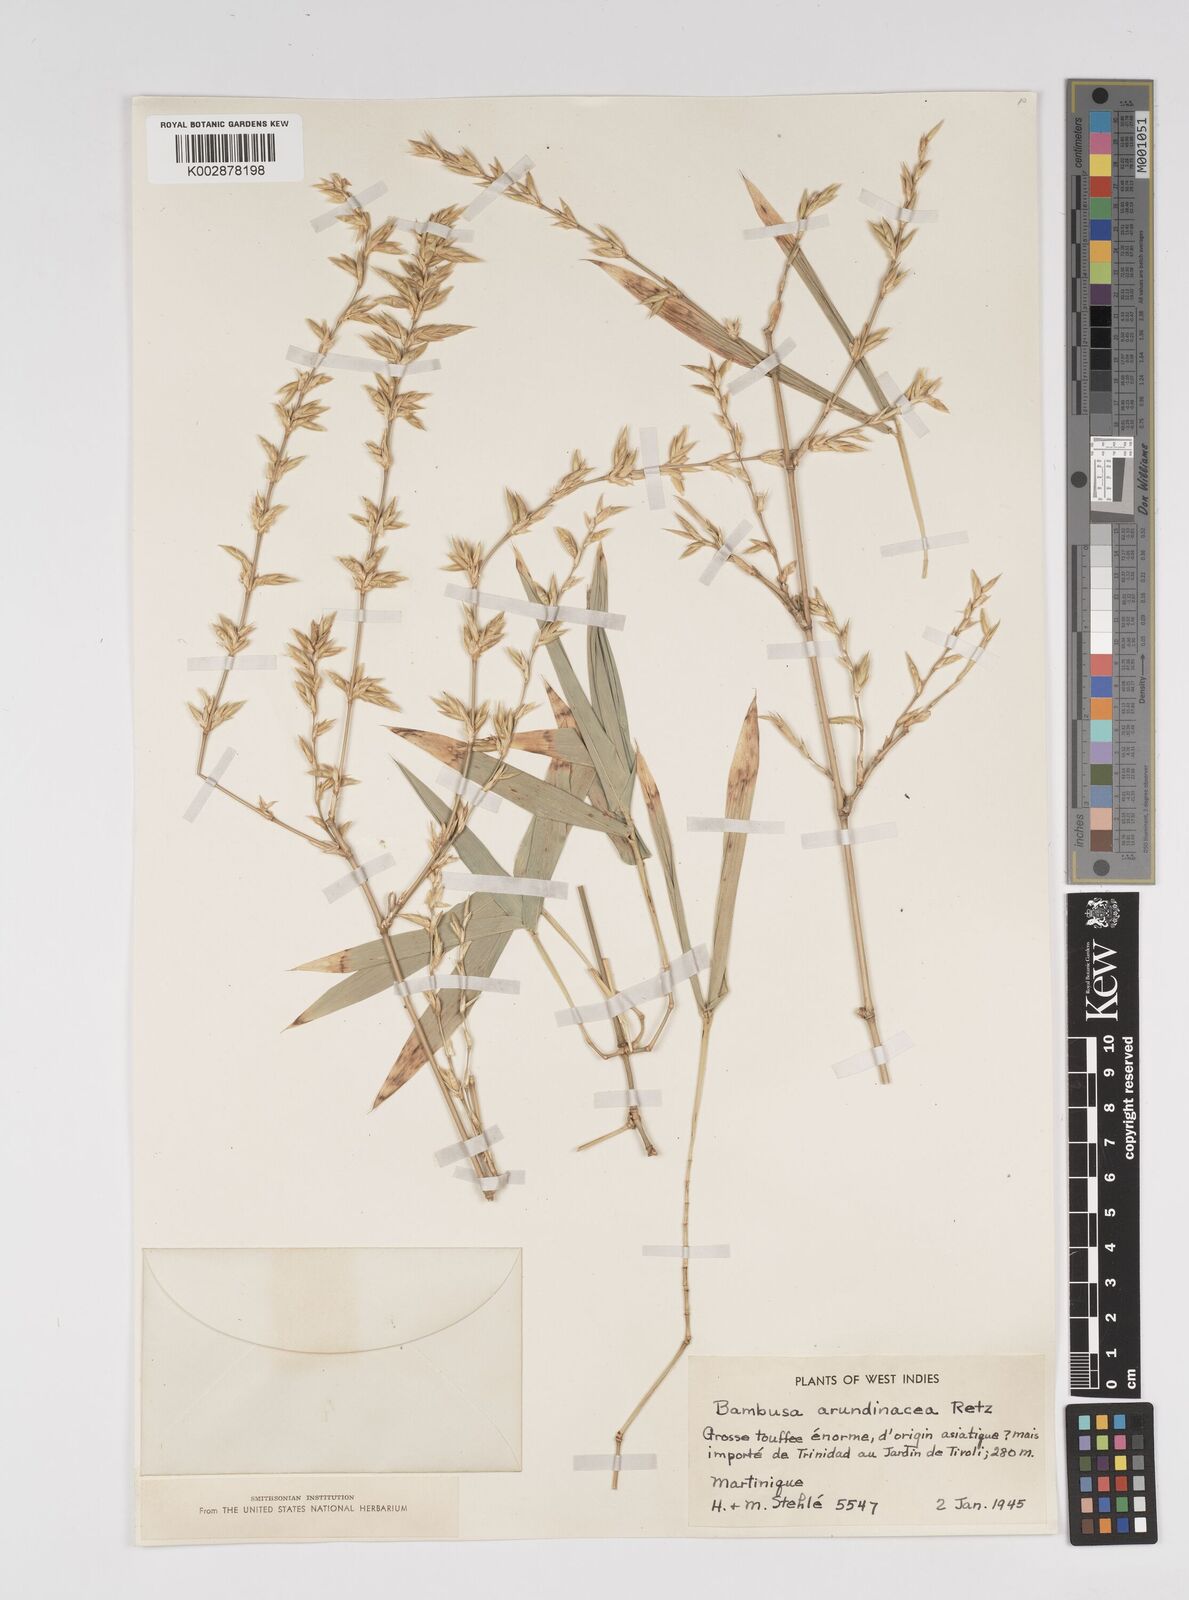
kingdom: Plantae
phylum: Tracheophyta
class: Liliopsida
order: Poales
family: Poaceae
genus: Bambusa
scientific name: Bambusa bambos
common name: Indian thorny bamboo
